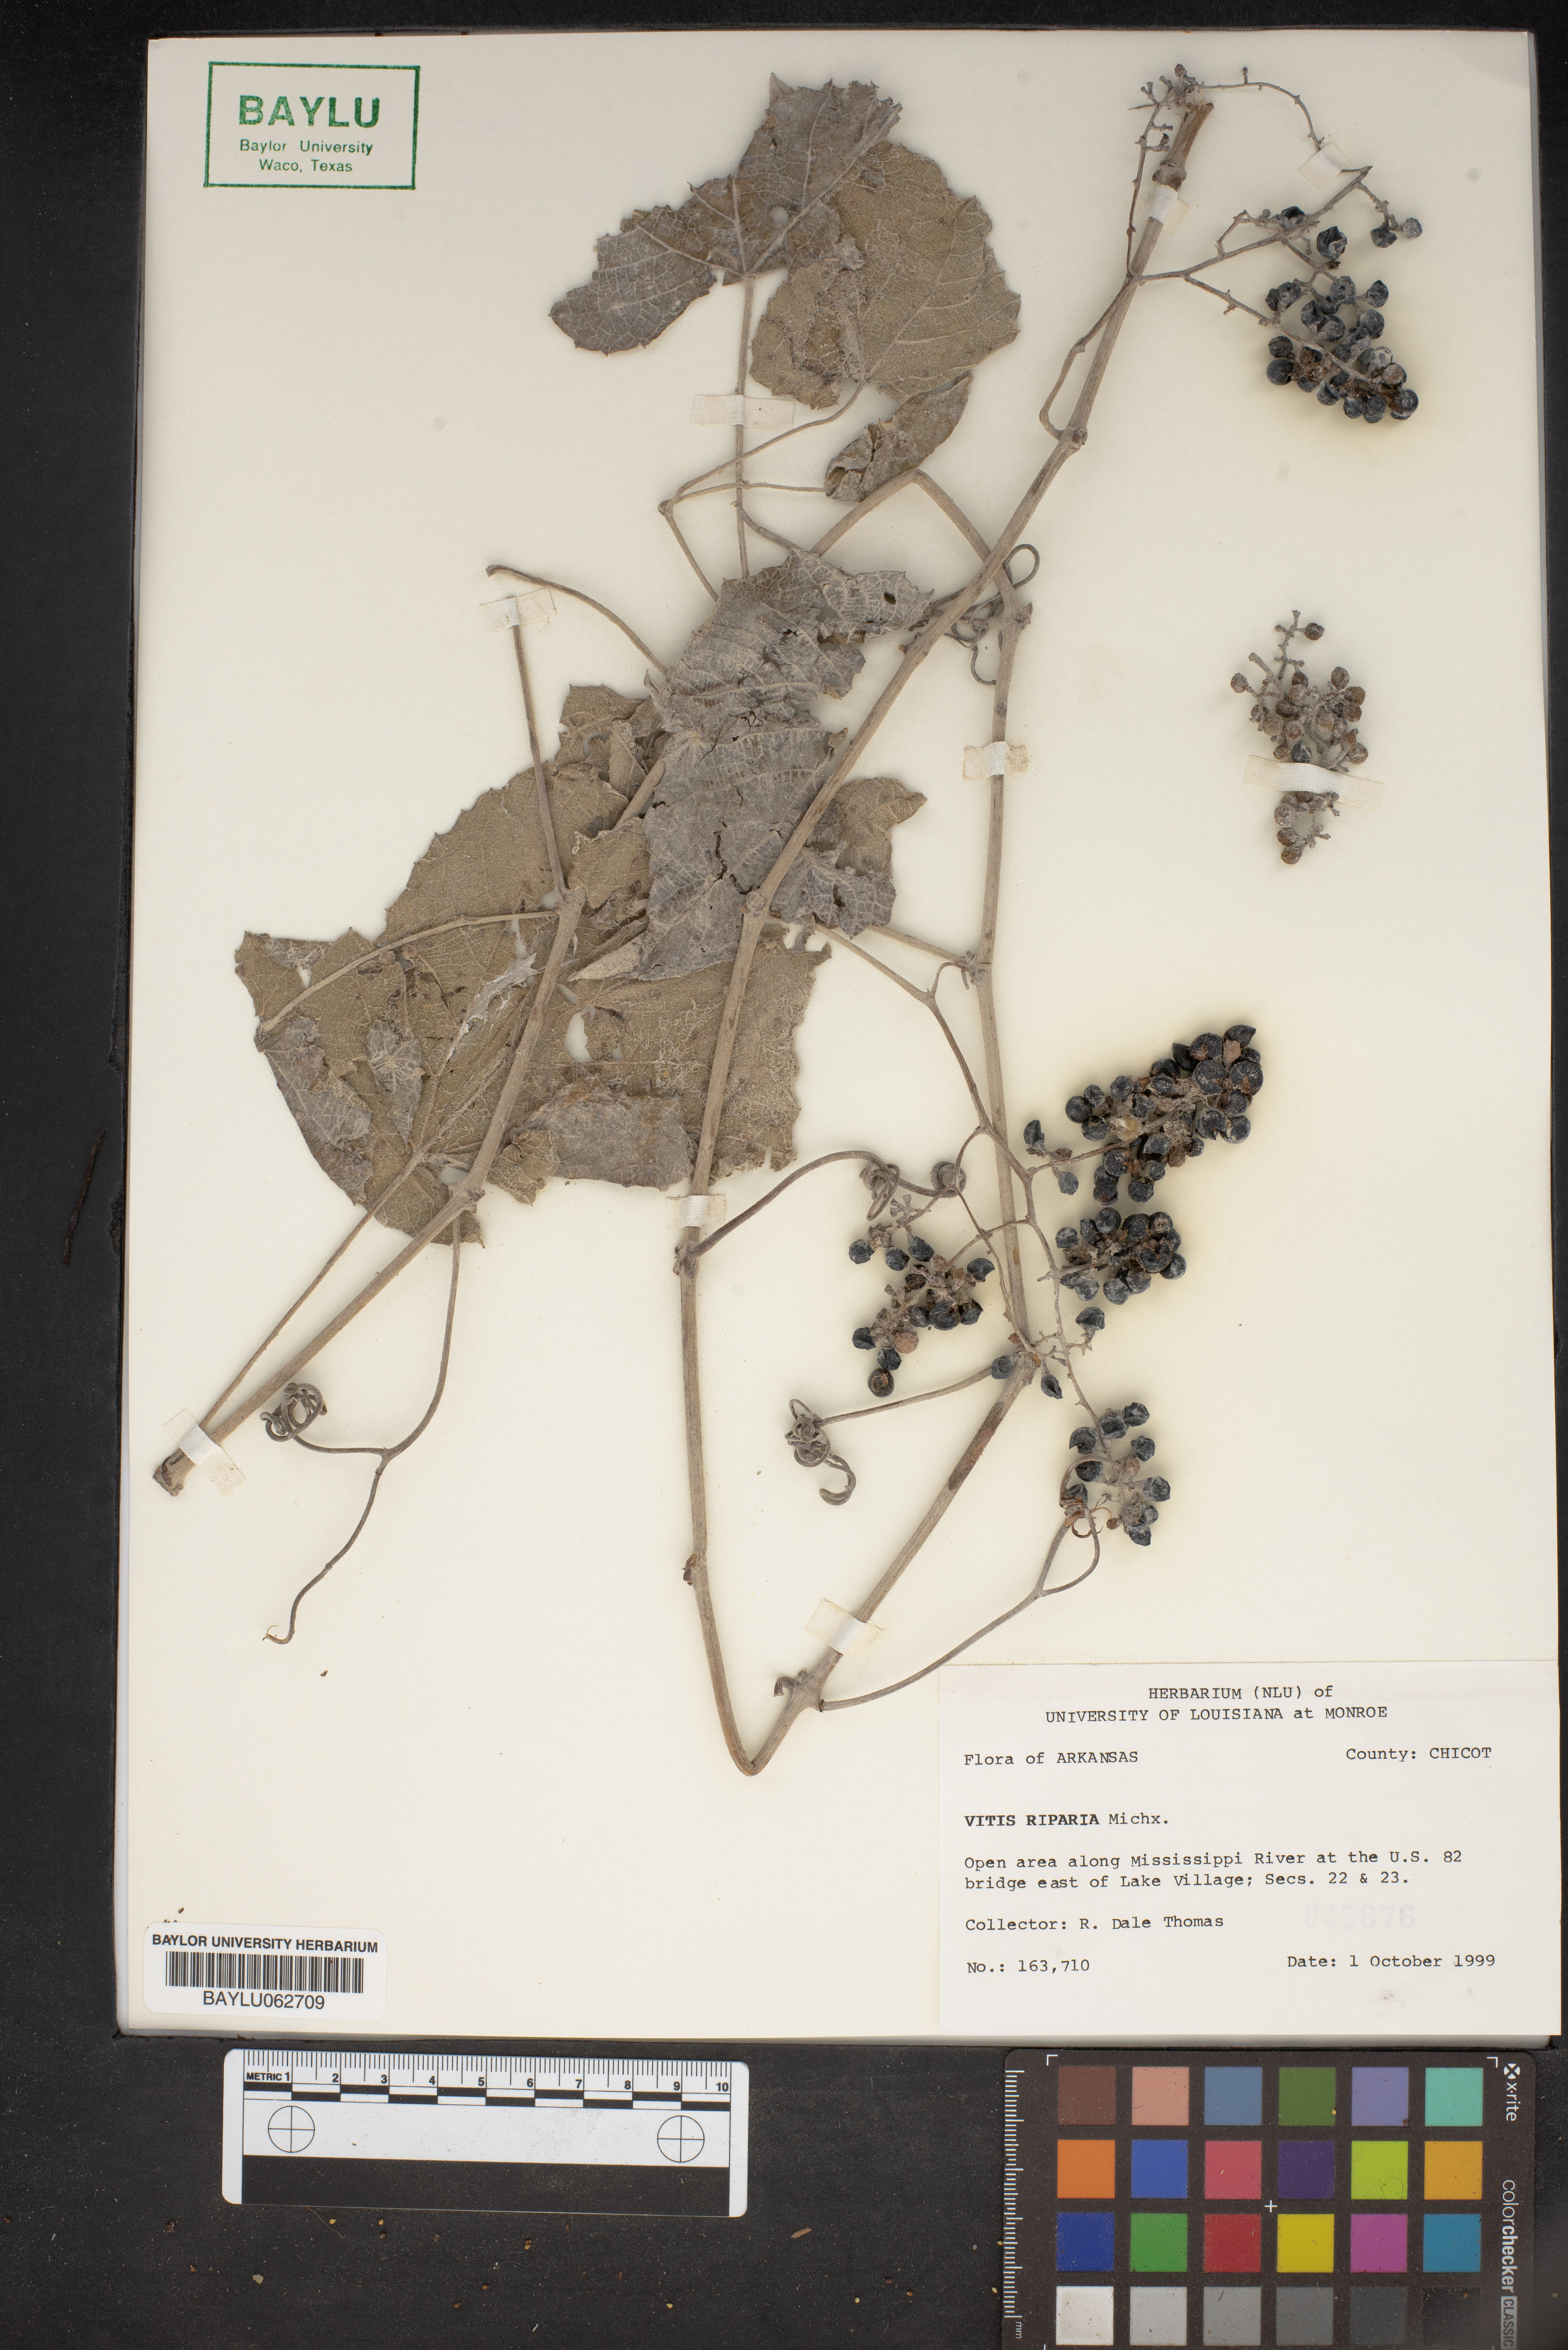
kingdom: Plantae
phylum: Tracheophyta
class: Magnoliopsida
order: Vitales
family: Vitaceae
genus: Vitis
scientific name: Vitis riparia
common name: Frost grape
